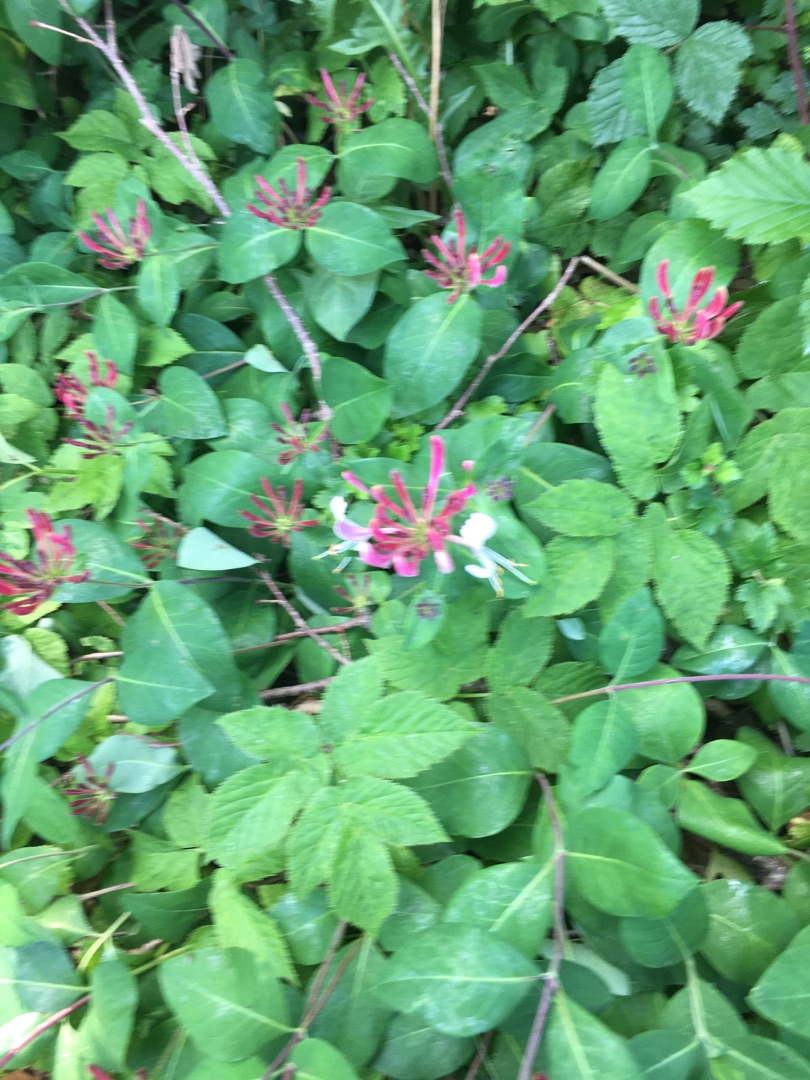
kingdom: Plantae
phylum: Tracheophyta
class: Magnoliopsida
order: Dipsacales
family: Caprifoliaceae
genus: Lonicera
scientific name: Lonicera periclymenum
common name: Almindelig gedeblad
